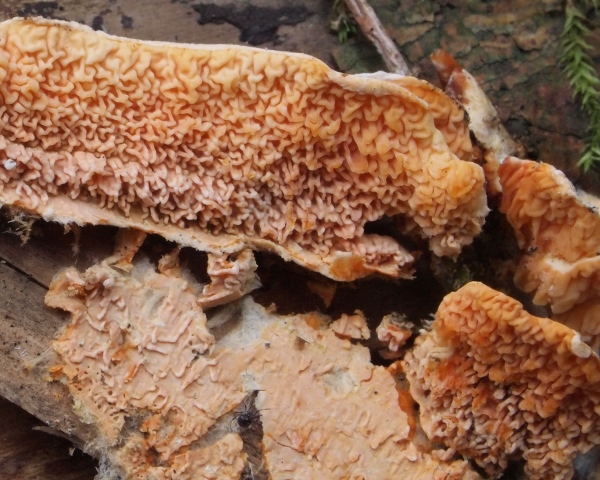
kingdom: Fungi
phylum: Basidiomycota
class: Agaricomycetes
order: Boletales
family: Hygrophoropsidaceae
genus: Leucogyrophana
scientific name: Leucogyrophana mollusca
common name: blød hussvamp
